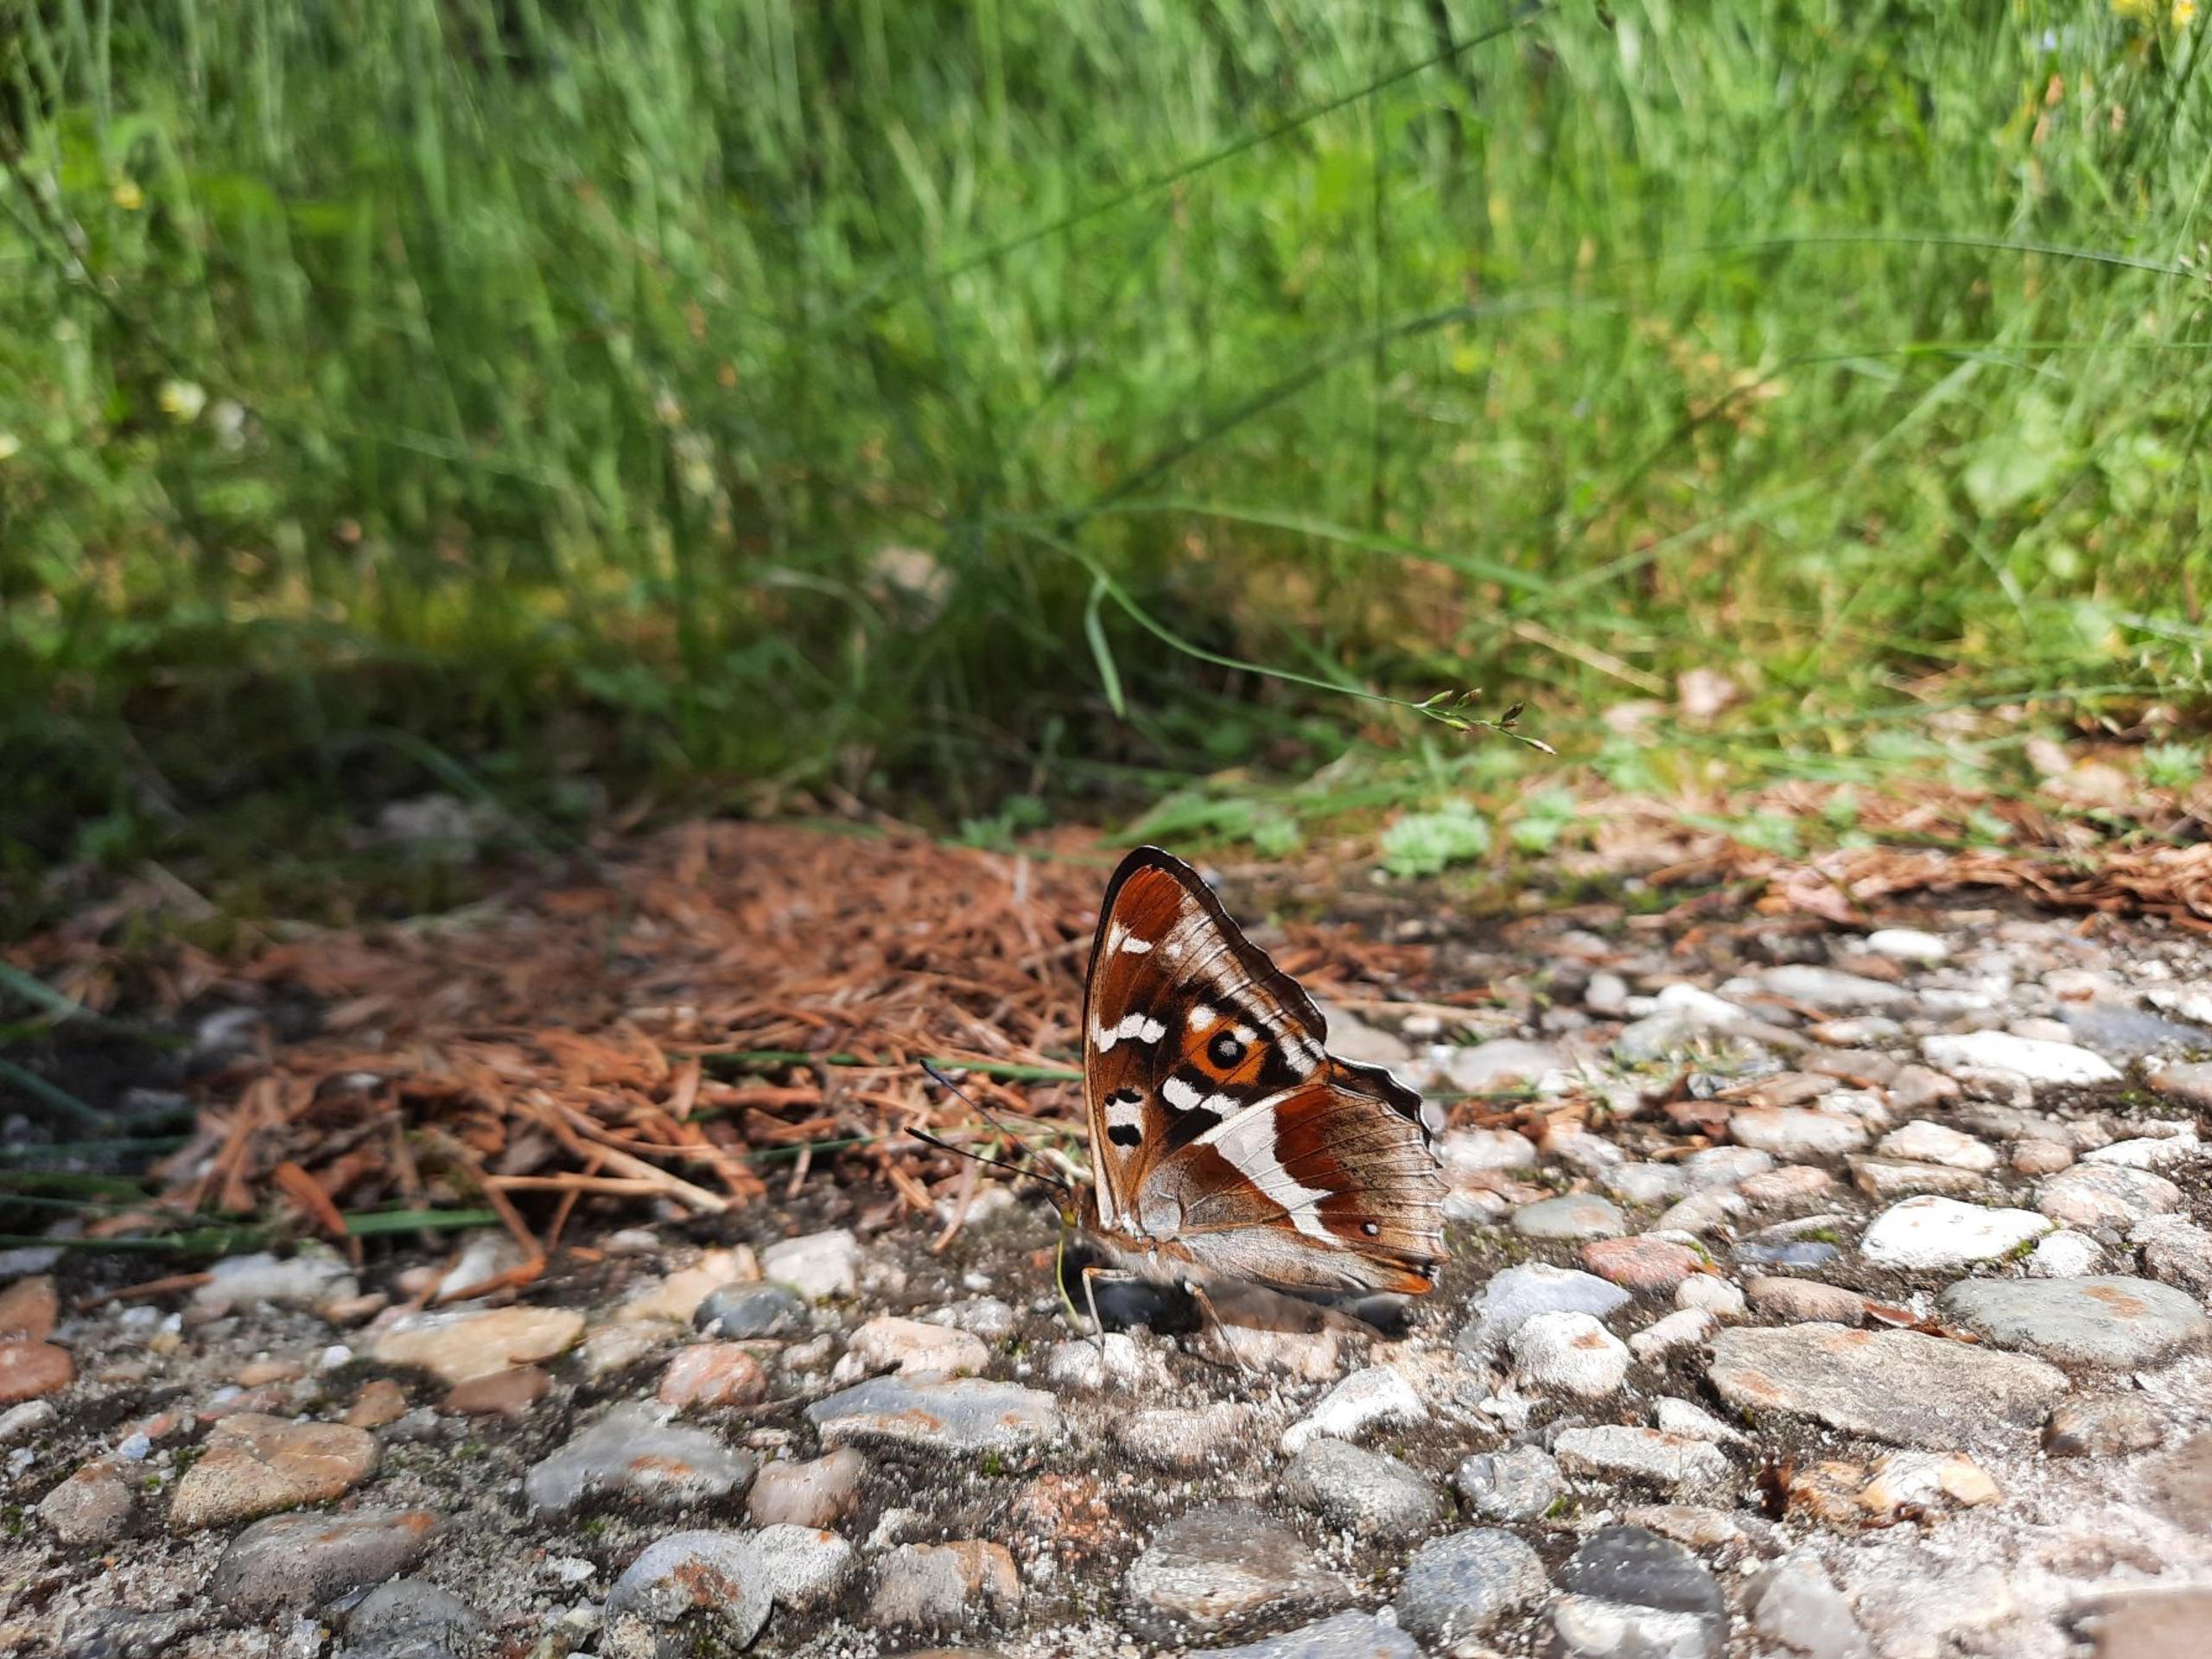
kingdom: Animalia
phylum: Arthropoda
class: Insecta
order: Lepidoptera
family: Nymphalidae
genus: Apatura
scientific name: Apatura iris
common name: Iris
